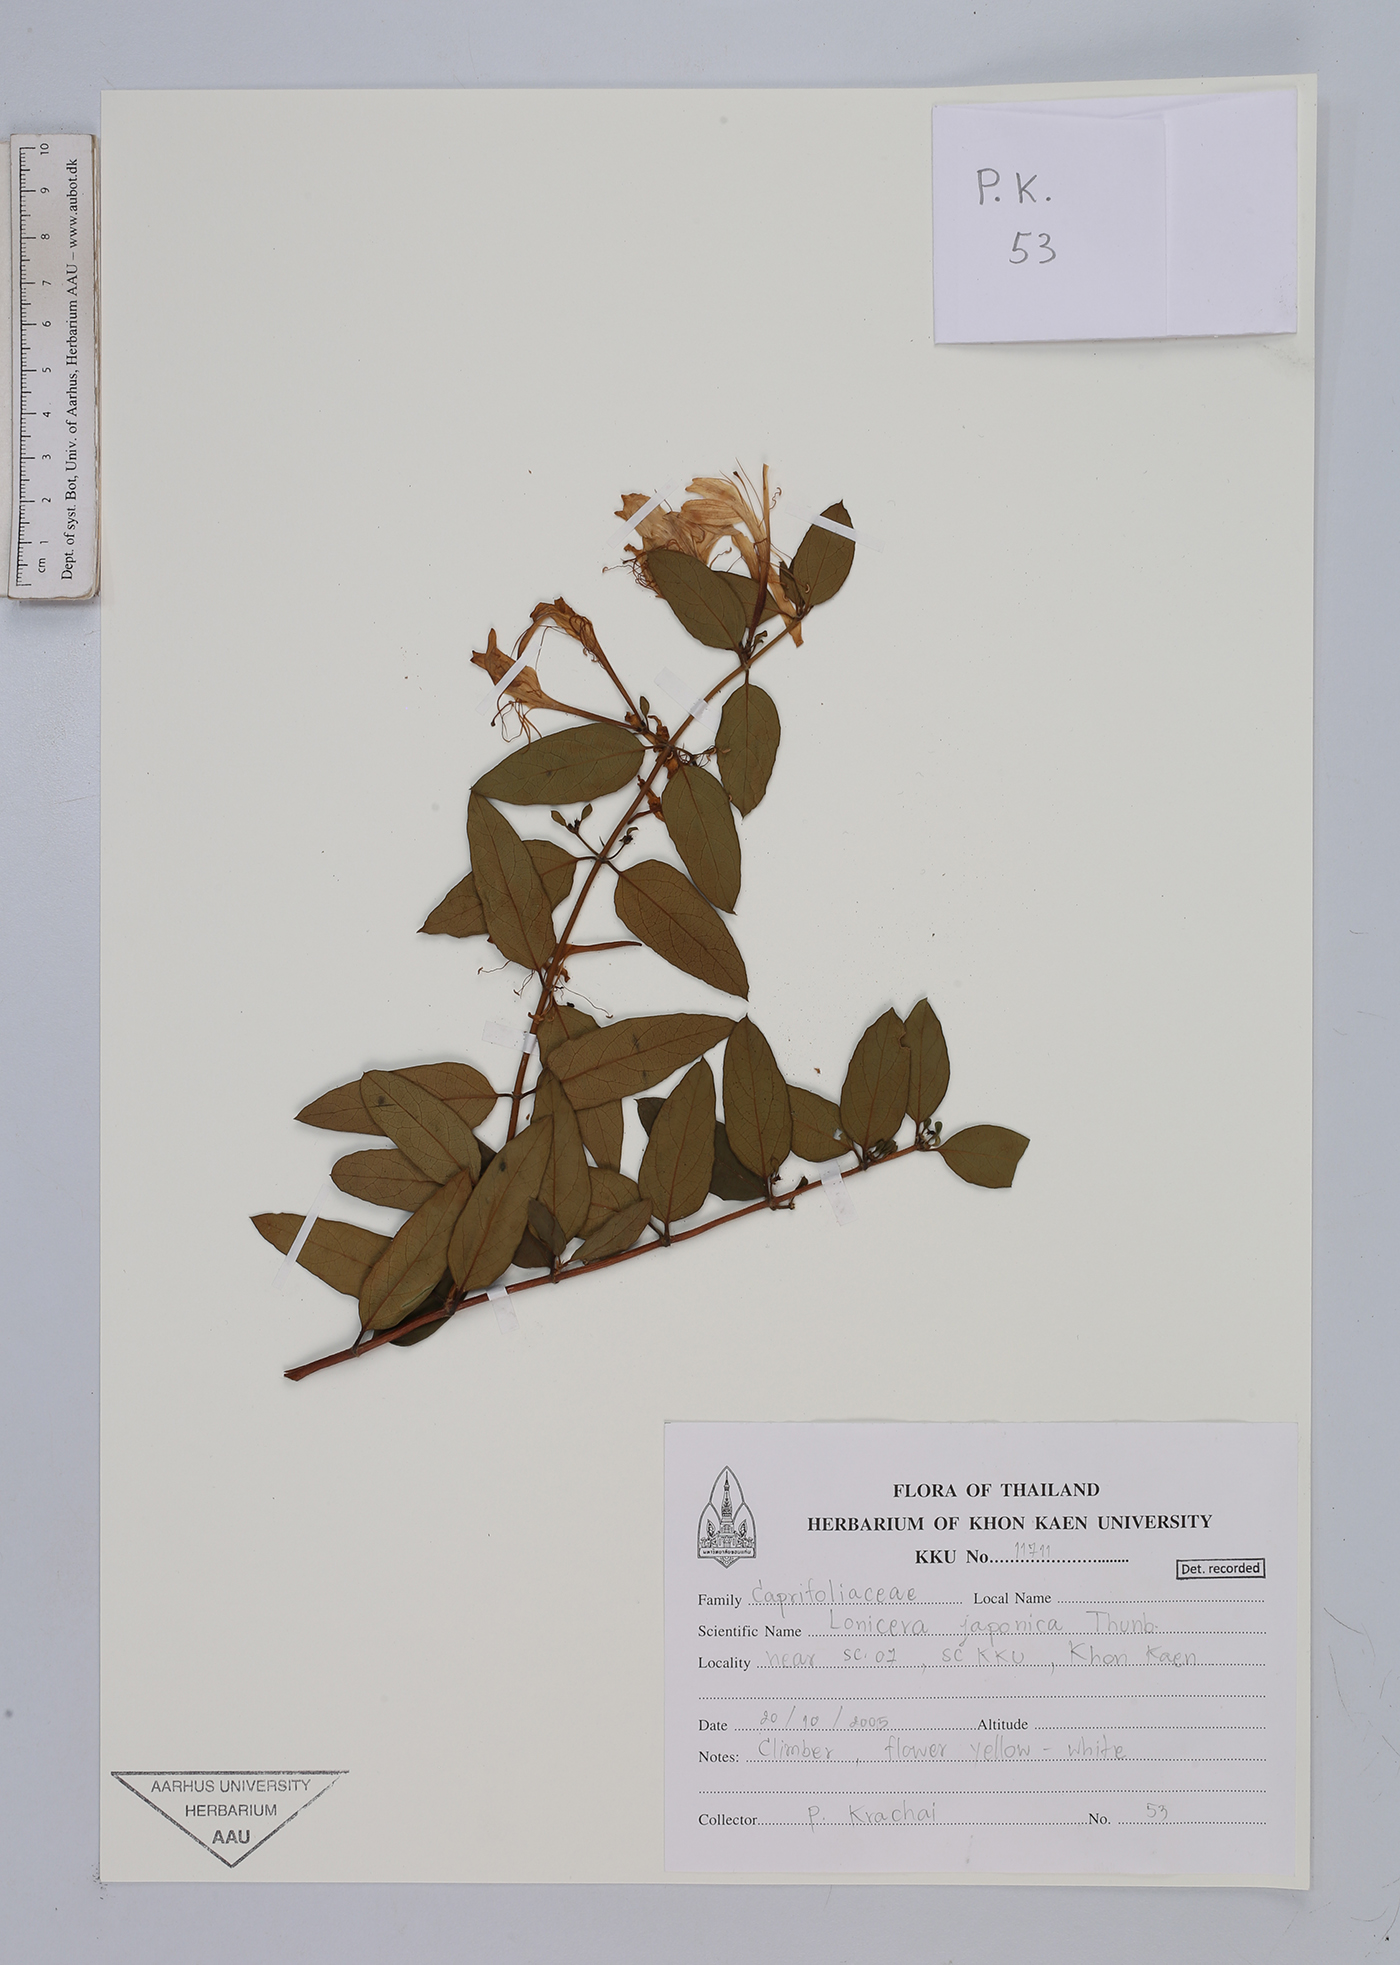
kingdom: Plantae
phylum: Tracheophyta
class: Magnoliopsida
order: Dipsacales
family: Caprifoliaceae
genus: Lonicera
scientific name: Lonicera japonica
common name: Japanese honeysuckle
